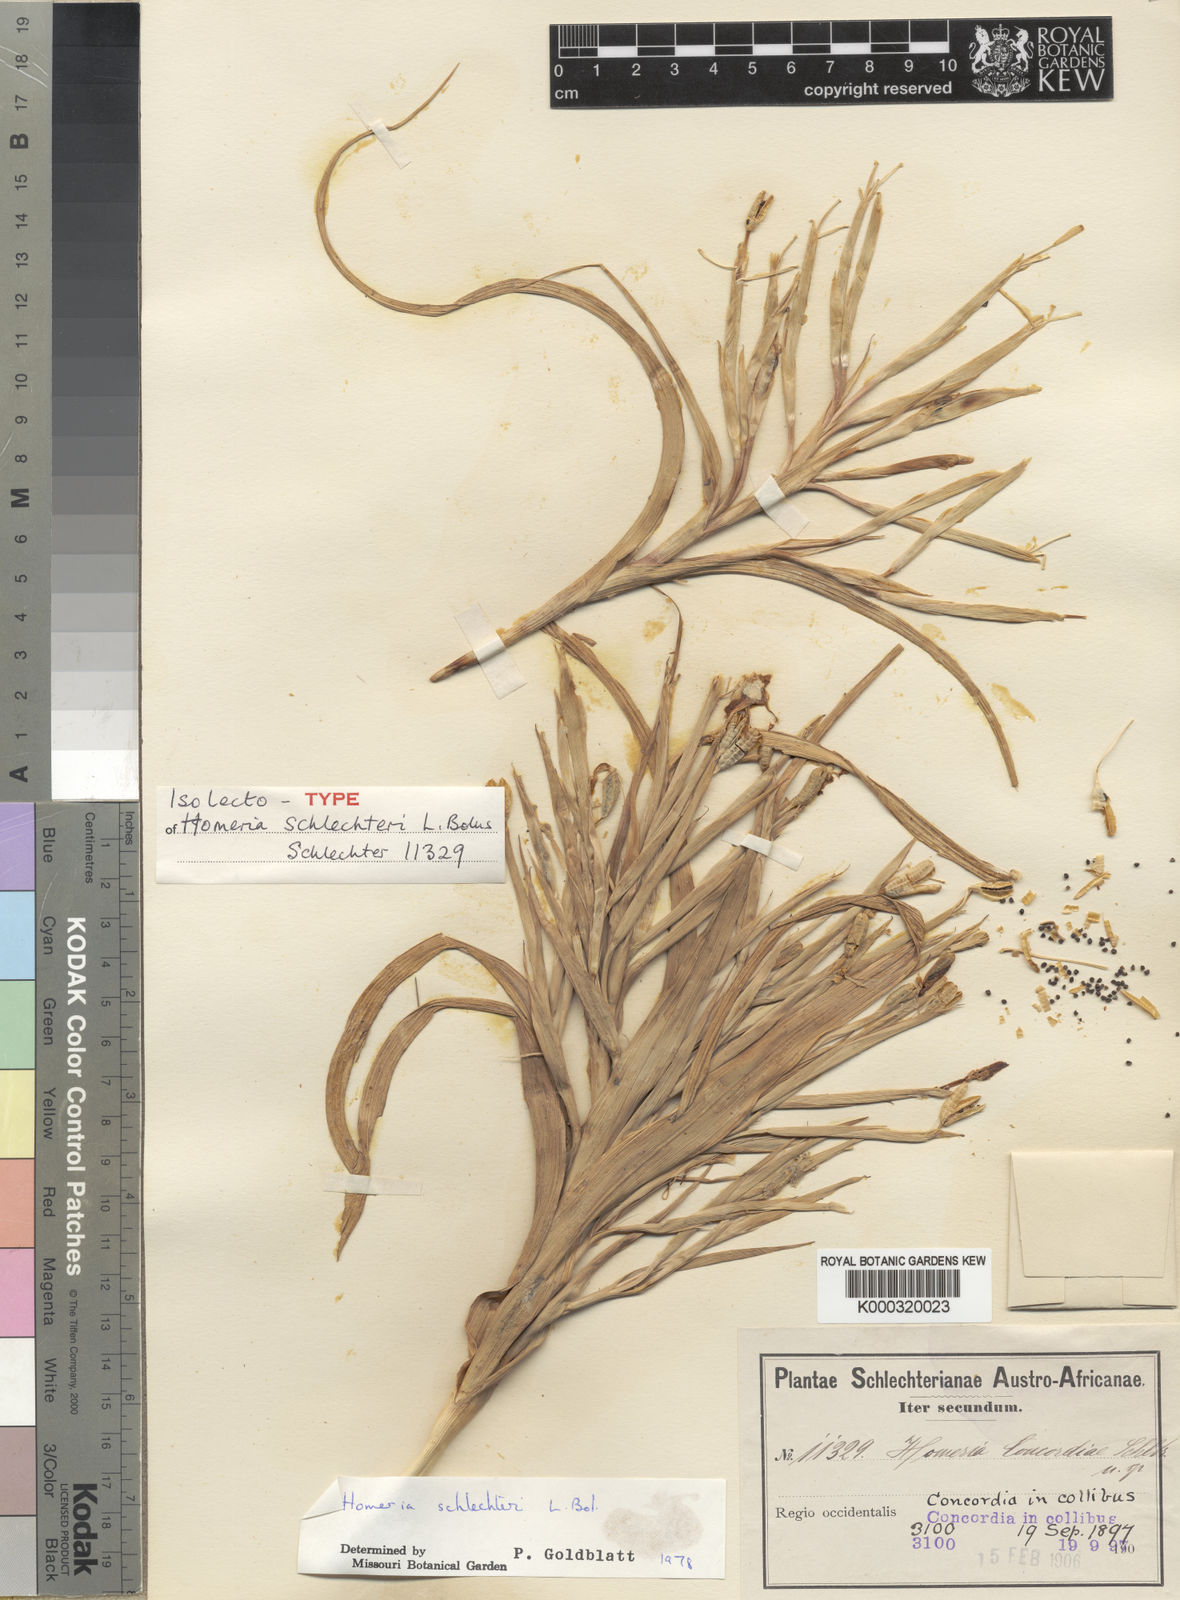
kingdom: Plantae
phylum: Tracheophyta
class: Liliopsida
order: Asparagales
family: Iridaceae
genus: Moraea
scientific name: Moraea schlechteri
